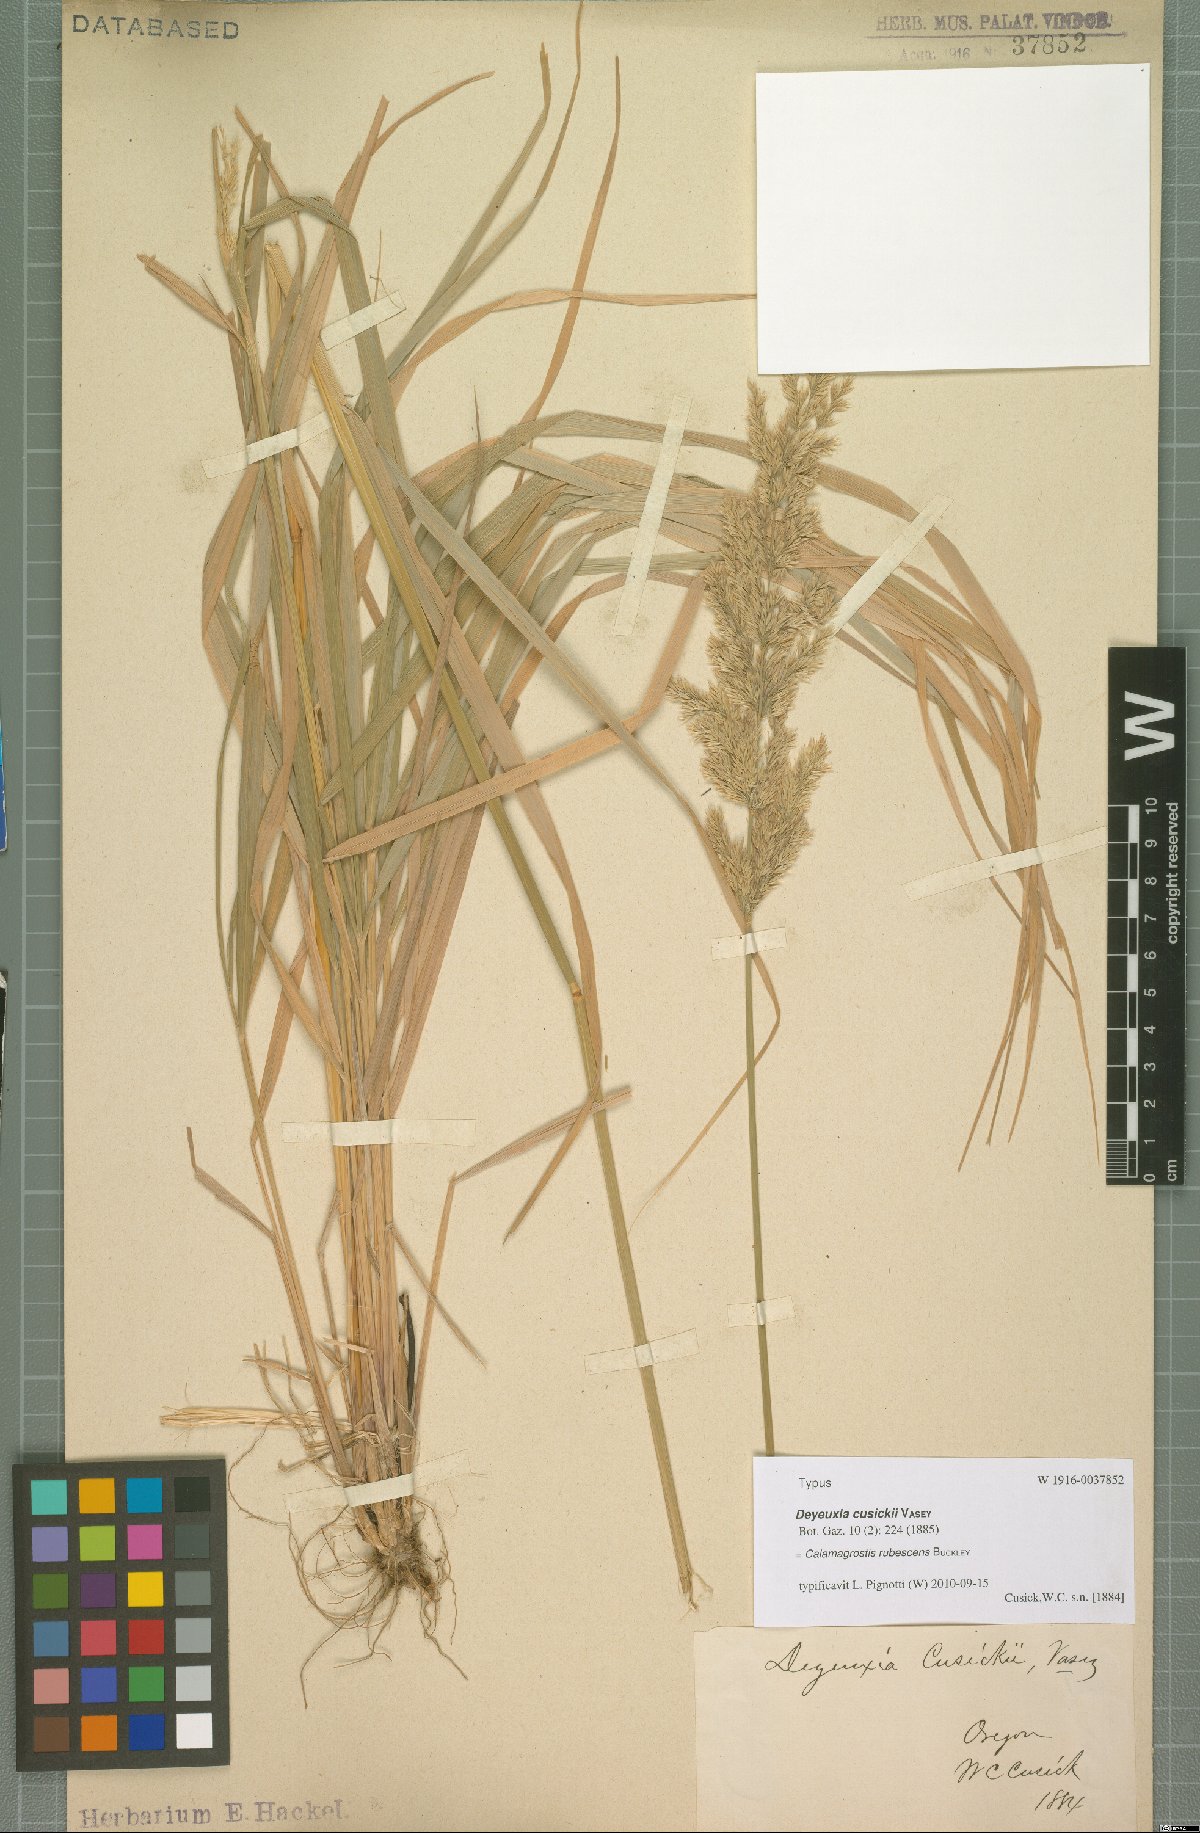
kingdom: Plantae
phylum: Tracheophyta
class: Liliopsida
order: Poales
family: Poaceae
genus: Calamagrostis
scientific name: Calamagrostis rubescens
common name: Pine grass
